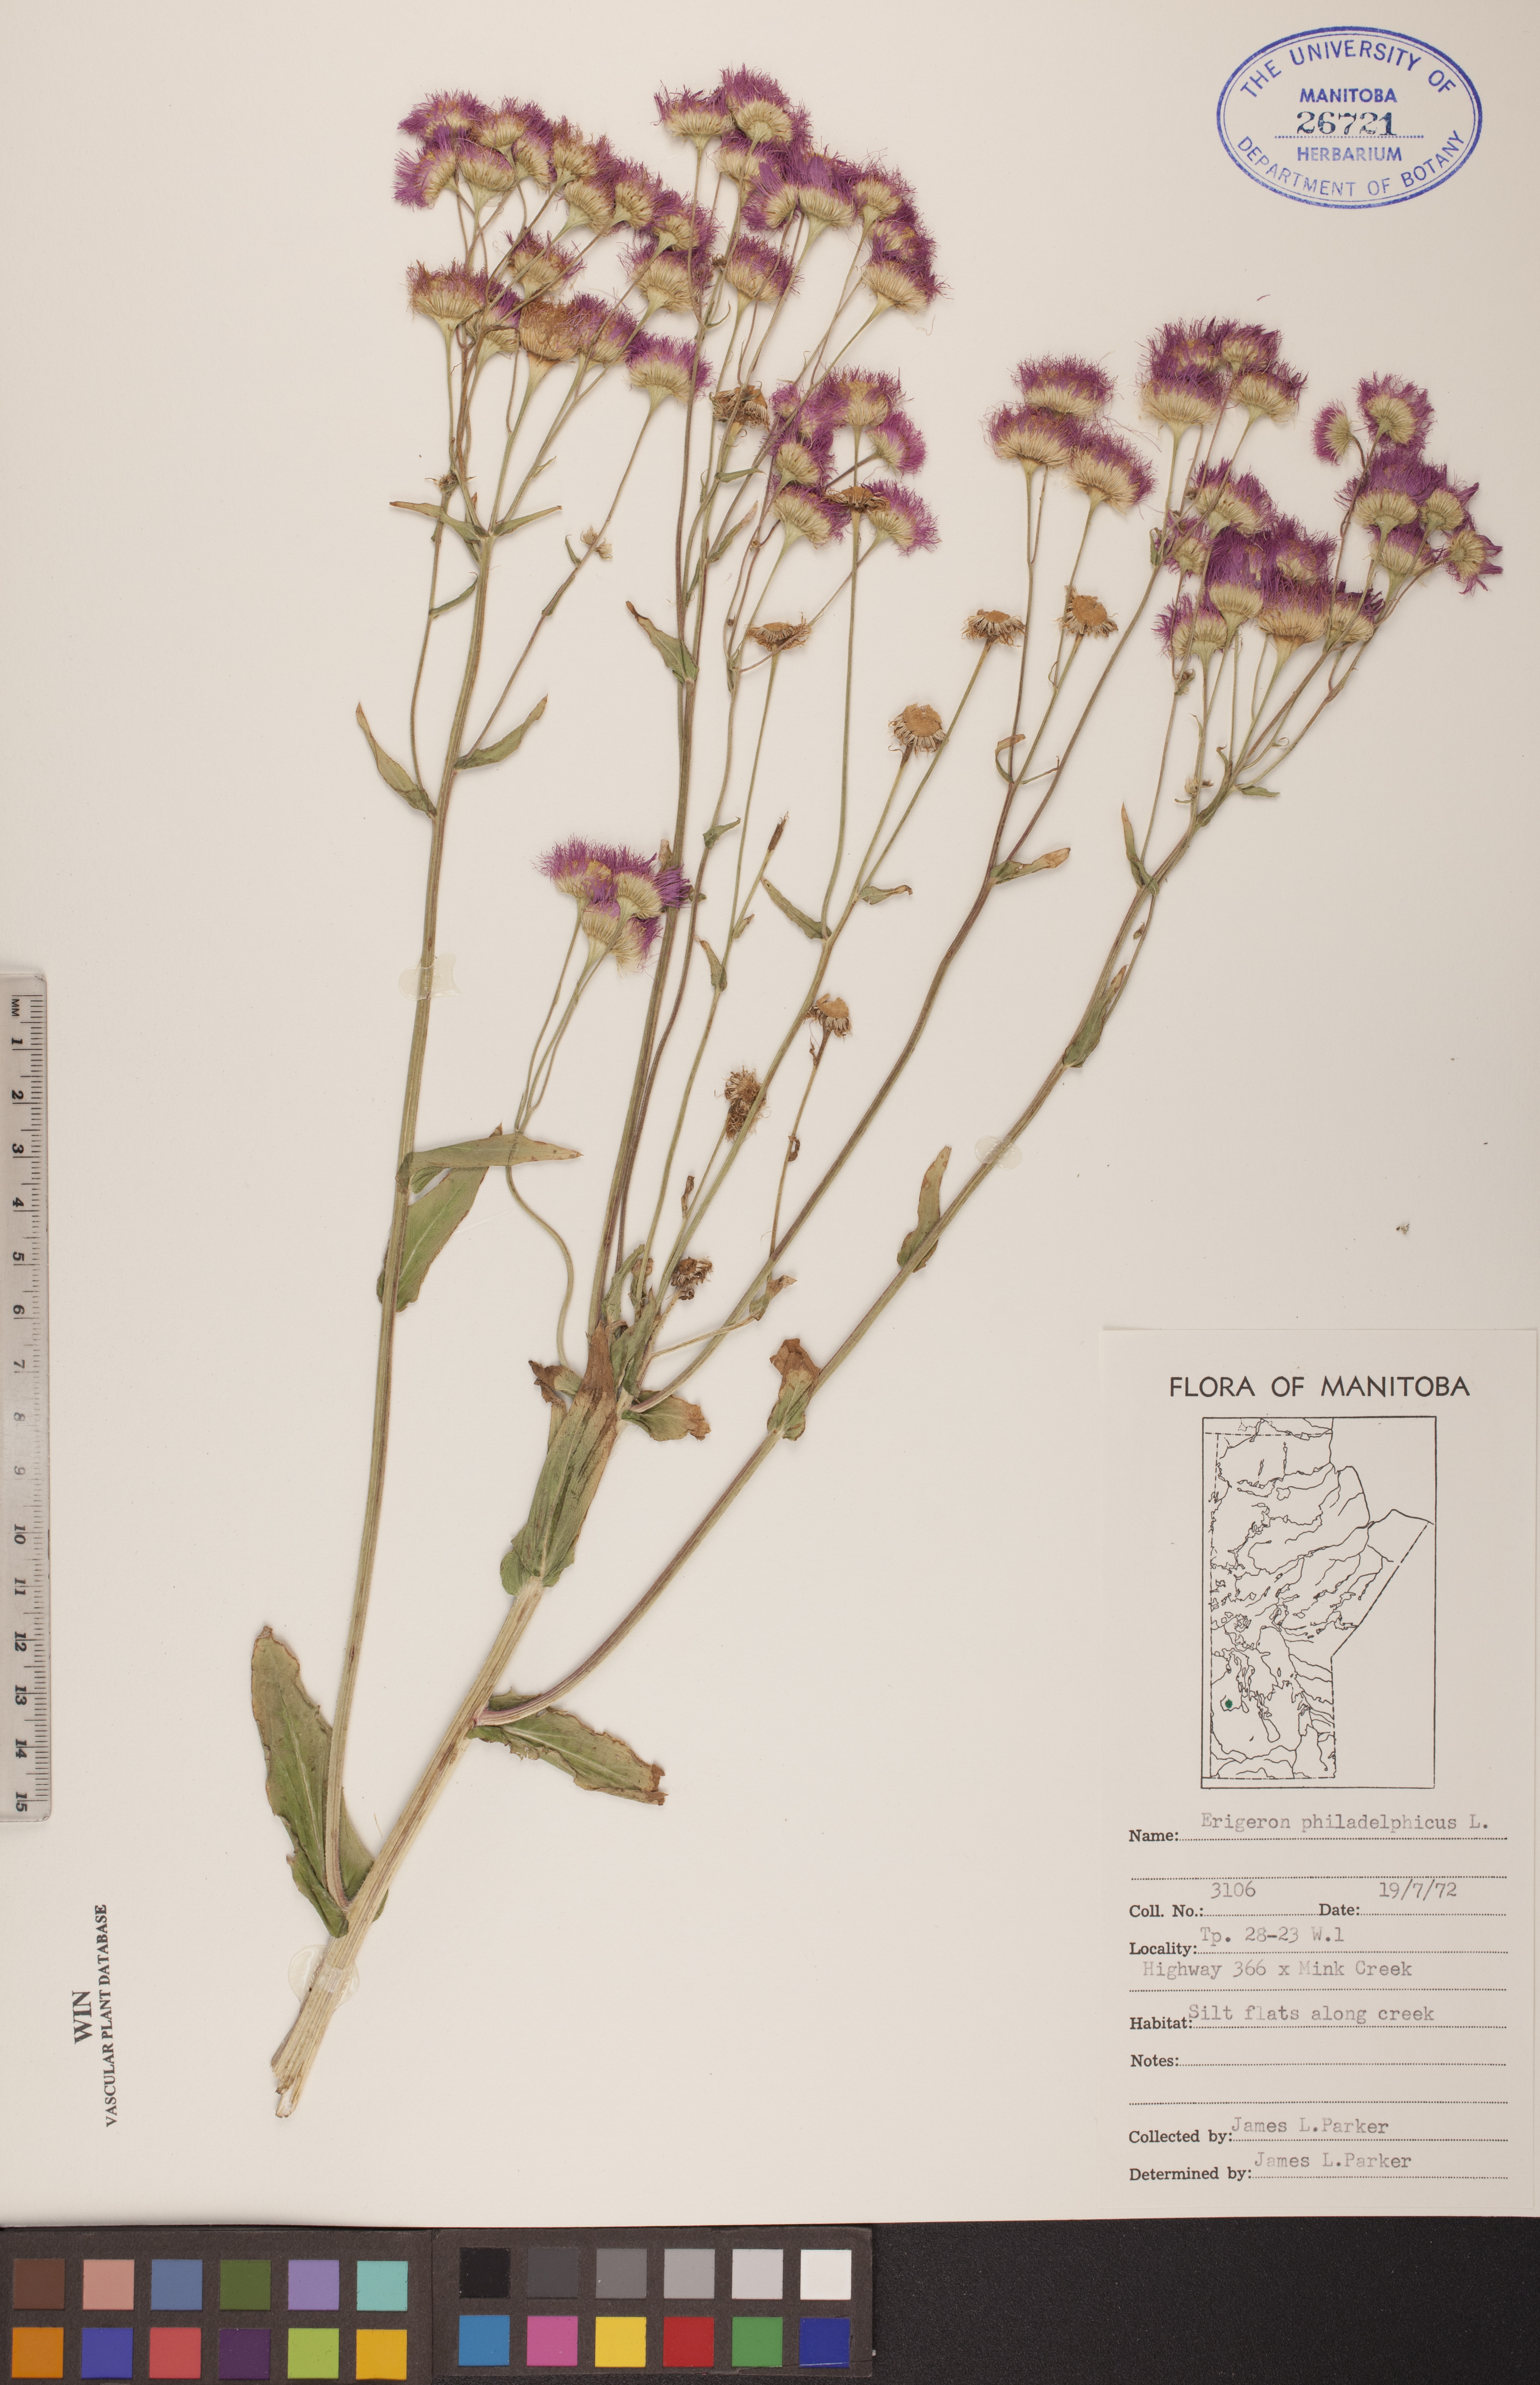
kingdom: Plantae
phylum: Tracheophyta
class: Magnoliopsida
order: Asterales
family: Asteraceae
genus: Erigeron
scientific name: Erigeron philadelphicus
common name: Robin's-plantain
